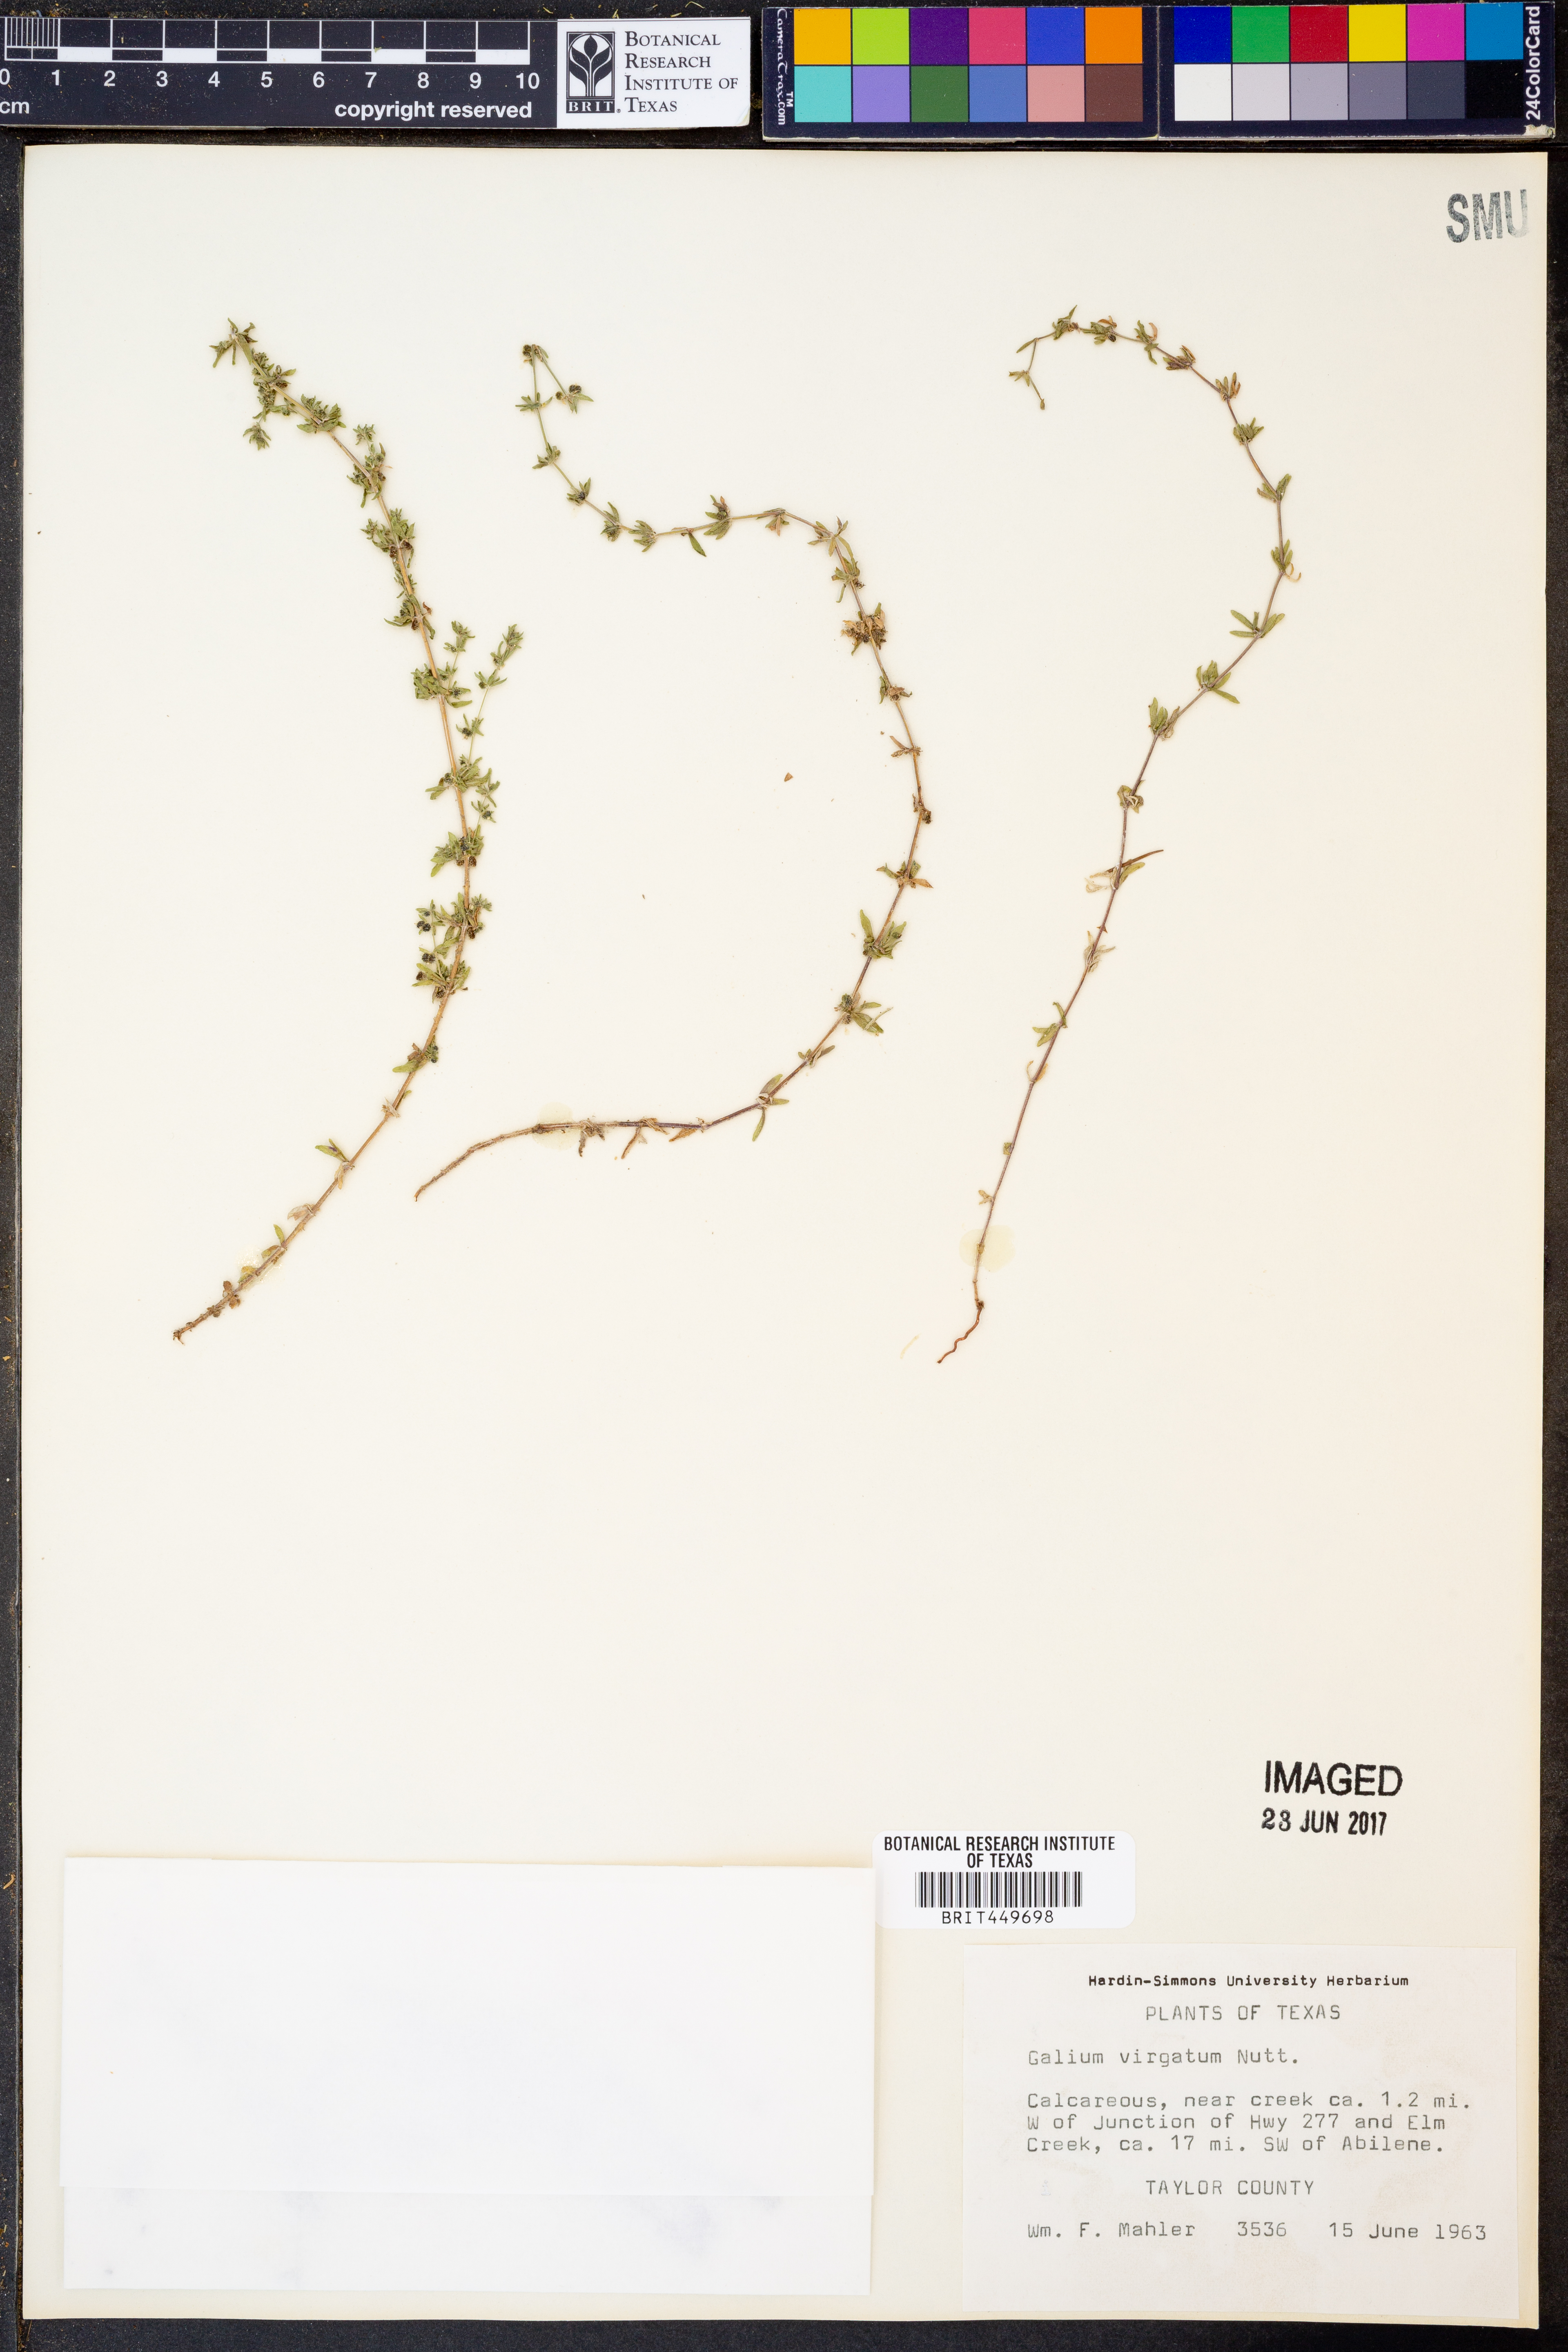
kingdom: Plantae
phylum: Tracheophyta
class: Magnoliopsida
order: Gentianales
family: Rubiaceae
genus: Galium
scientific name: Galium virgatum
